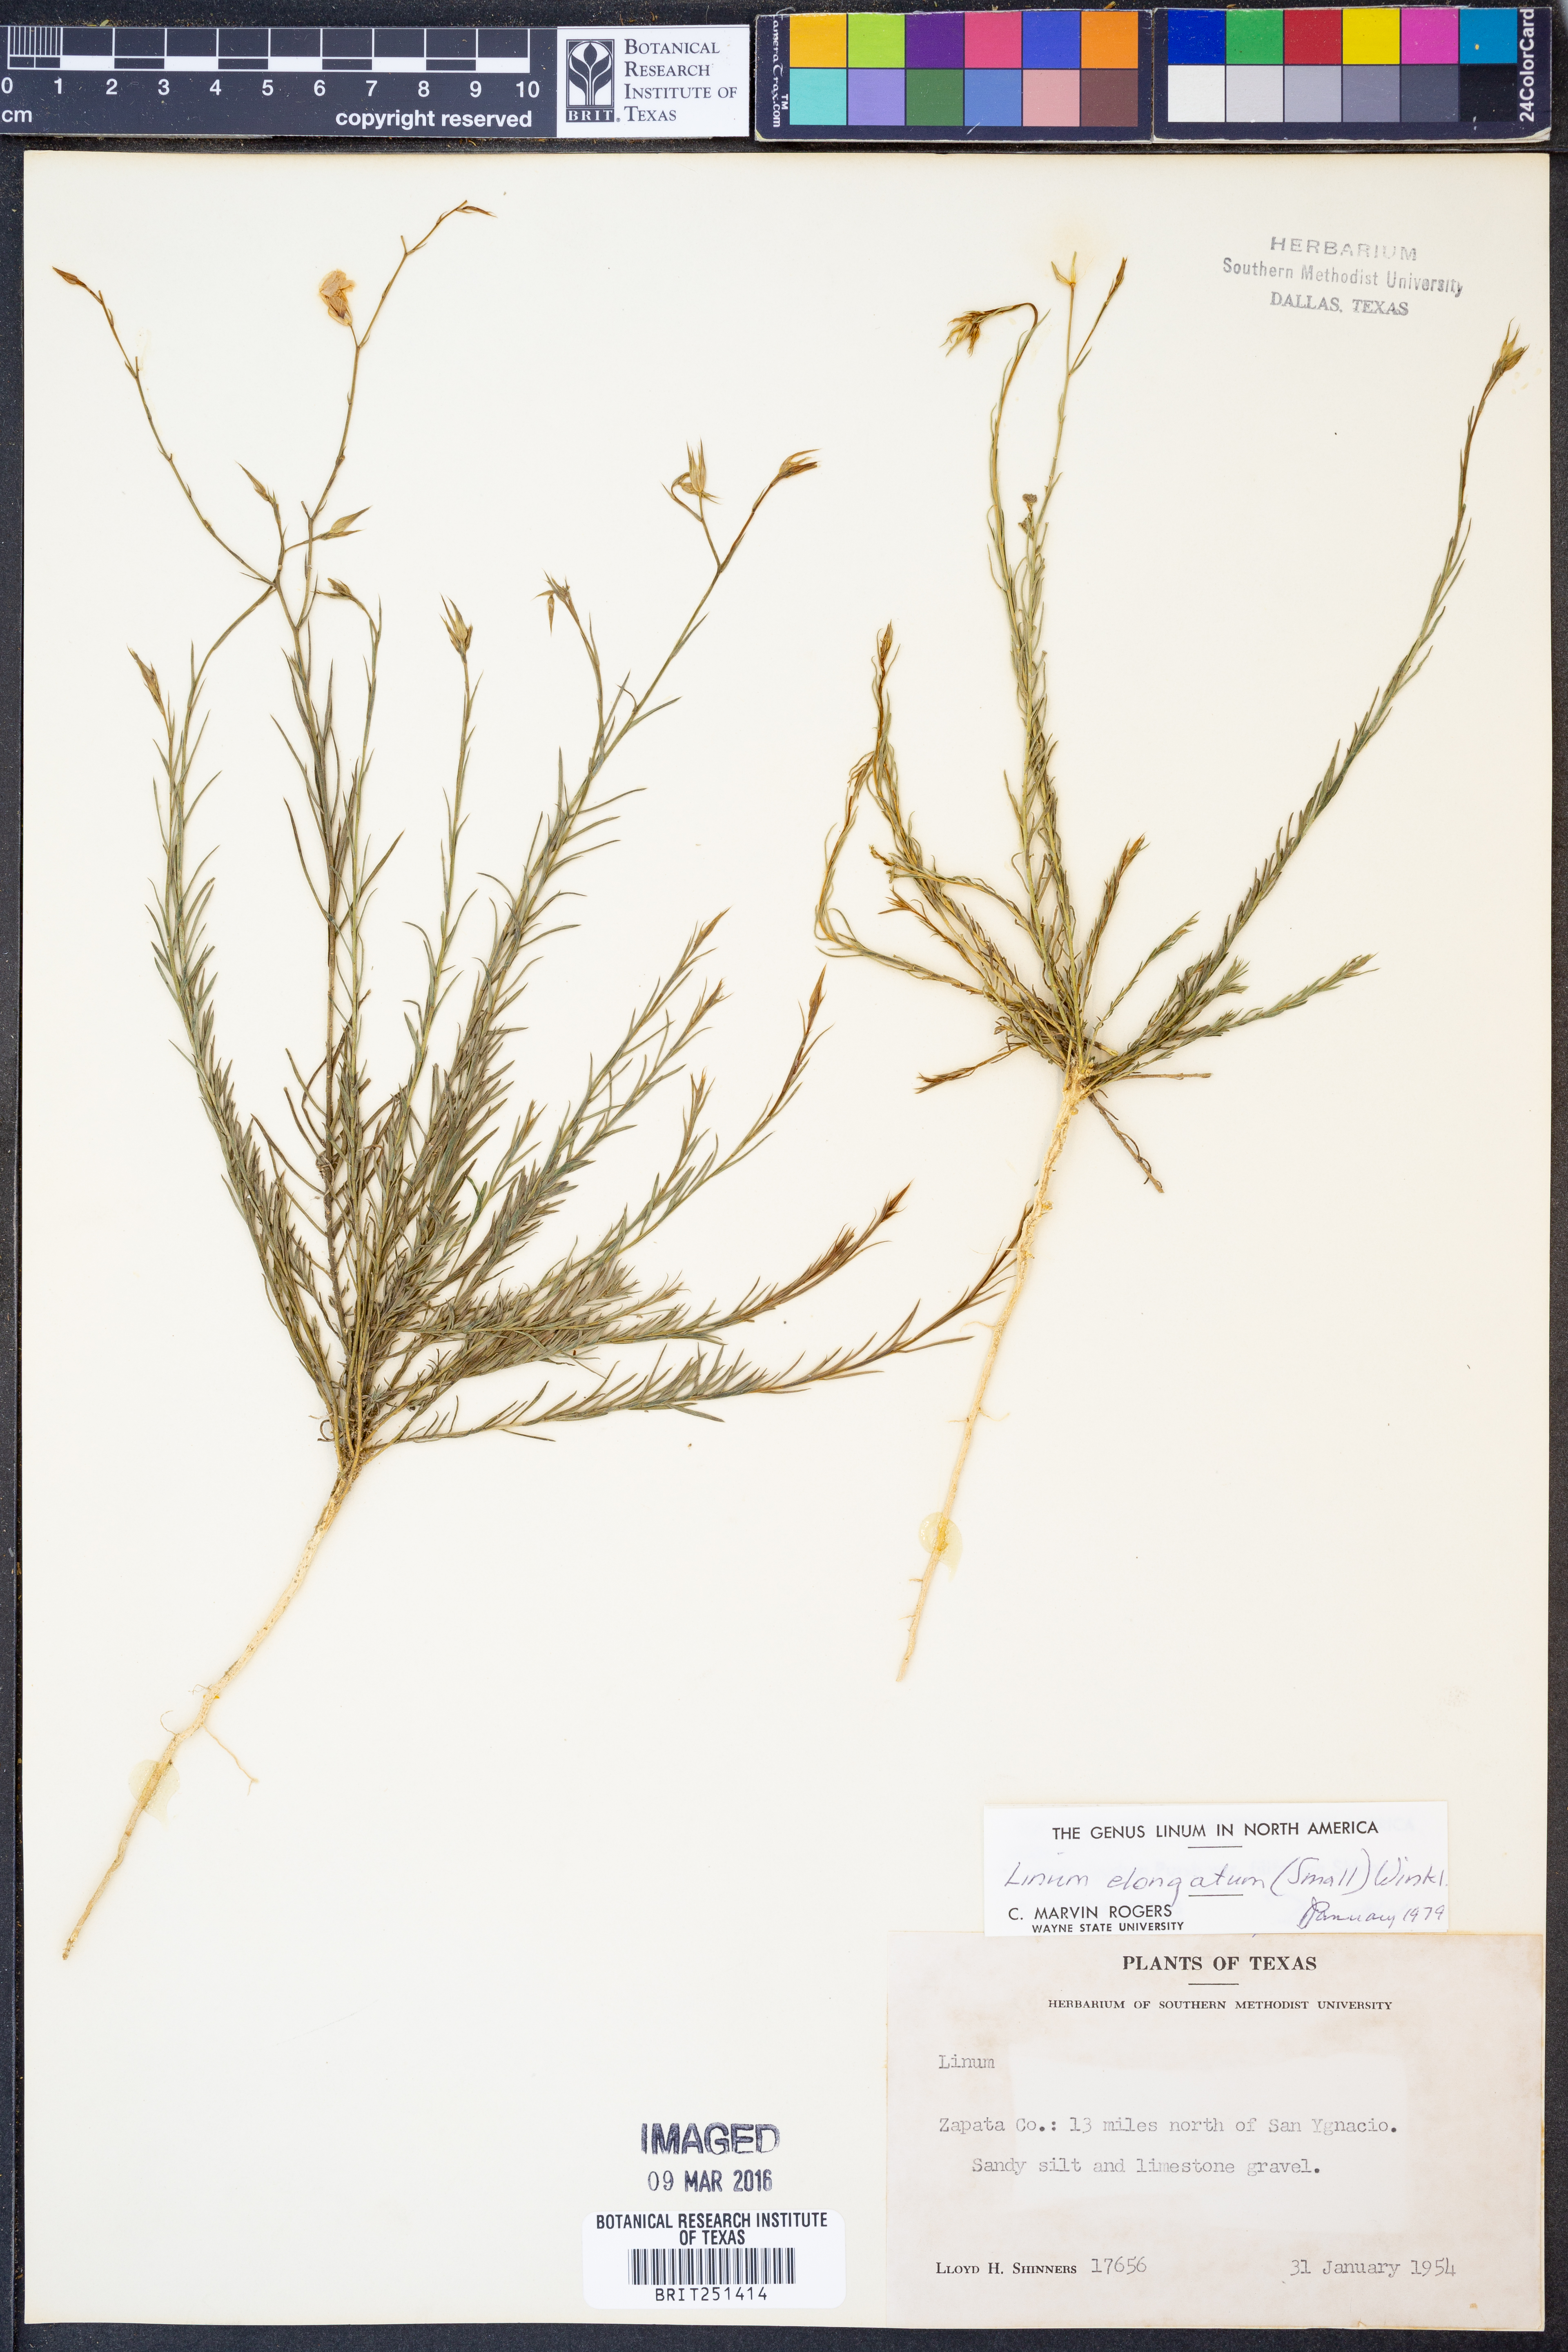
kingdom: Plantae
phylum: Tracheophyta
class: Magnoliopsida
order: Malpighiales
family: Linaceae
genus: Linum
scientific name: Linum elongatum
